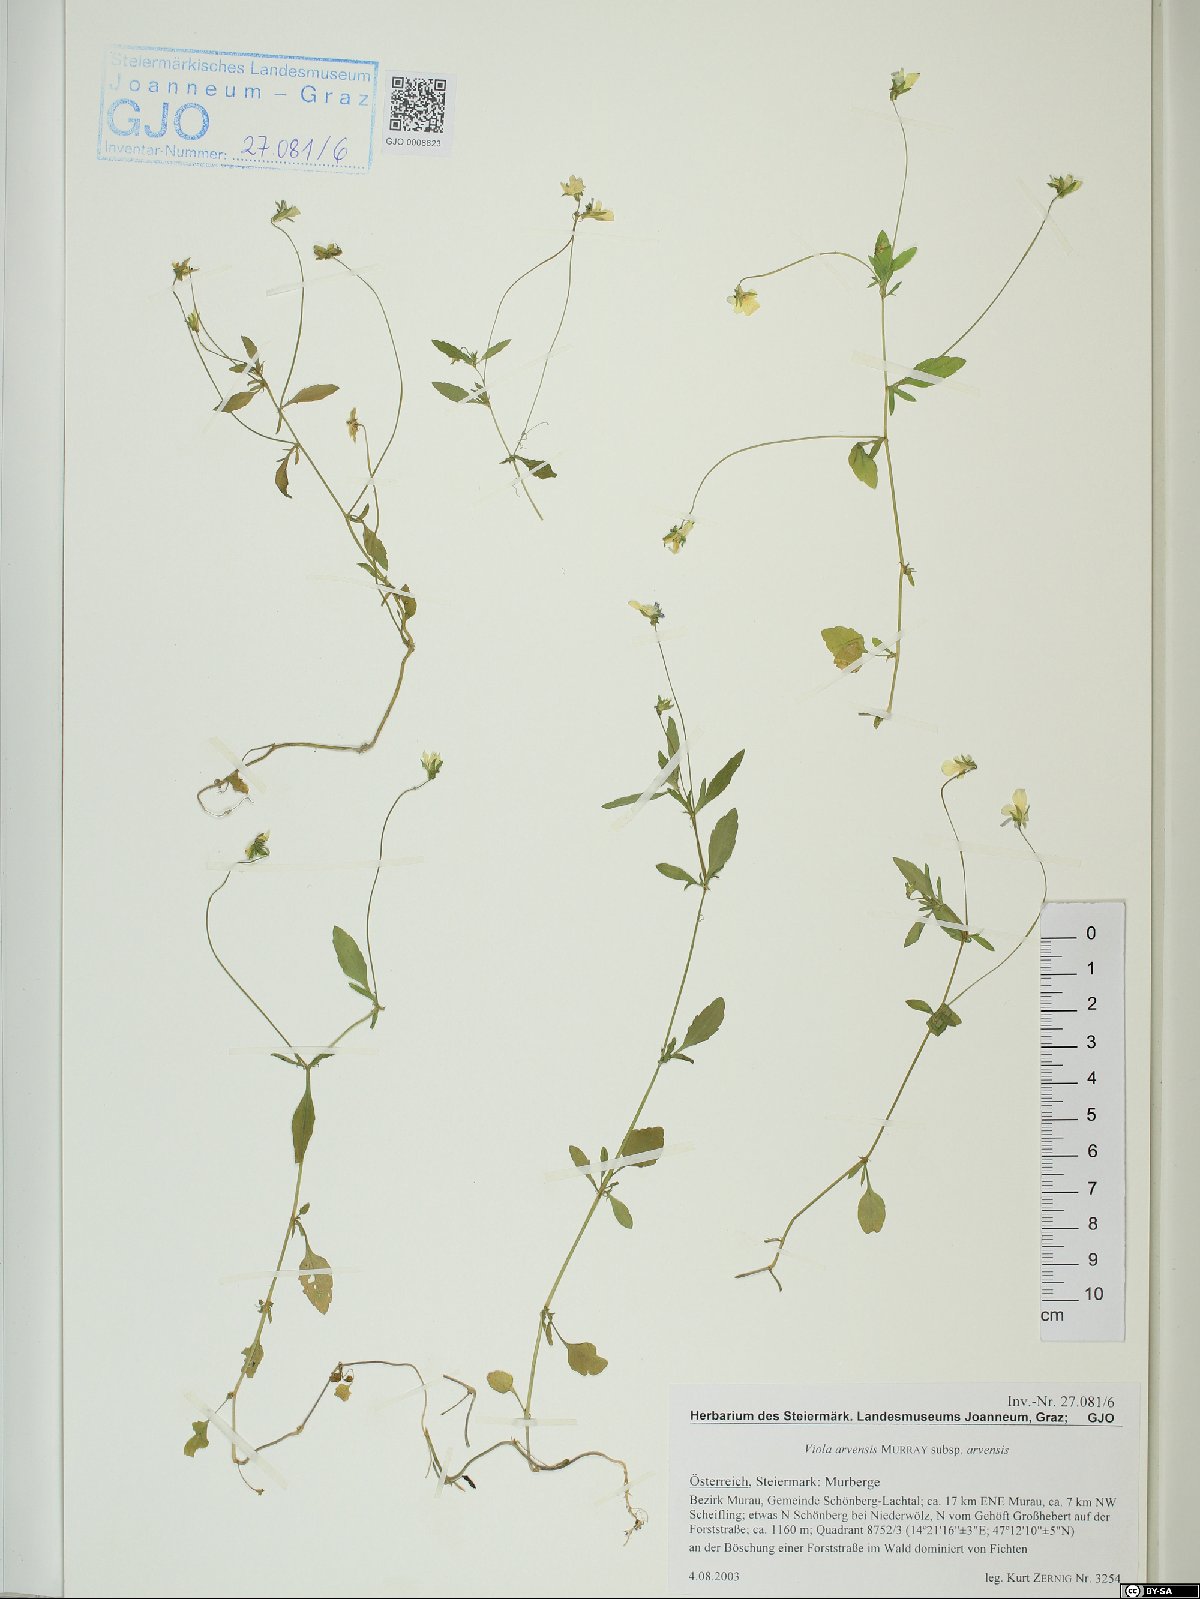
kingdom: Plantae
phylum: Tracheophyta
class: Magnoliopsida
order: Malpighiales
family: Violaceae
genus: Viola
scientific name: Viola arvensis
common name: Field pansy
